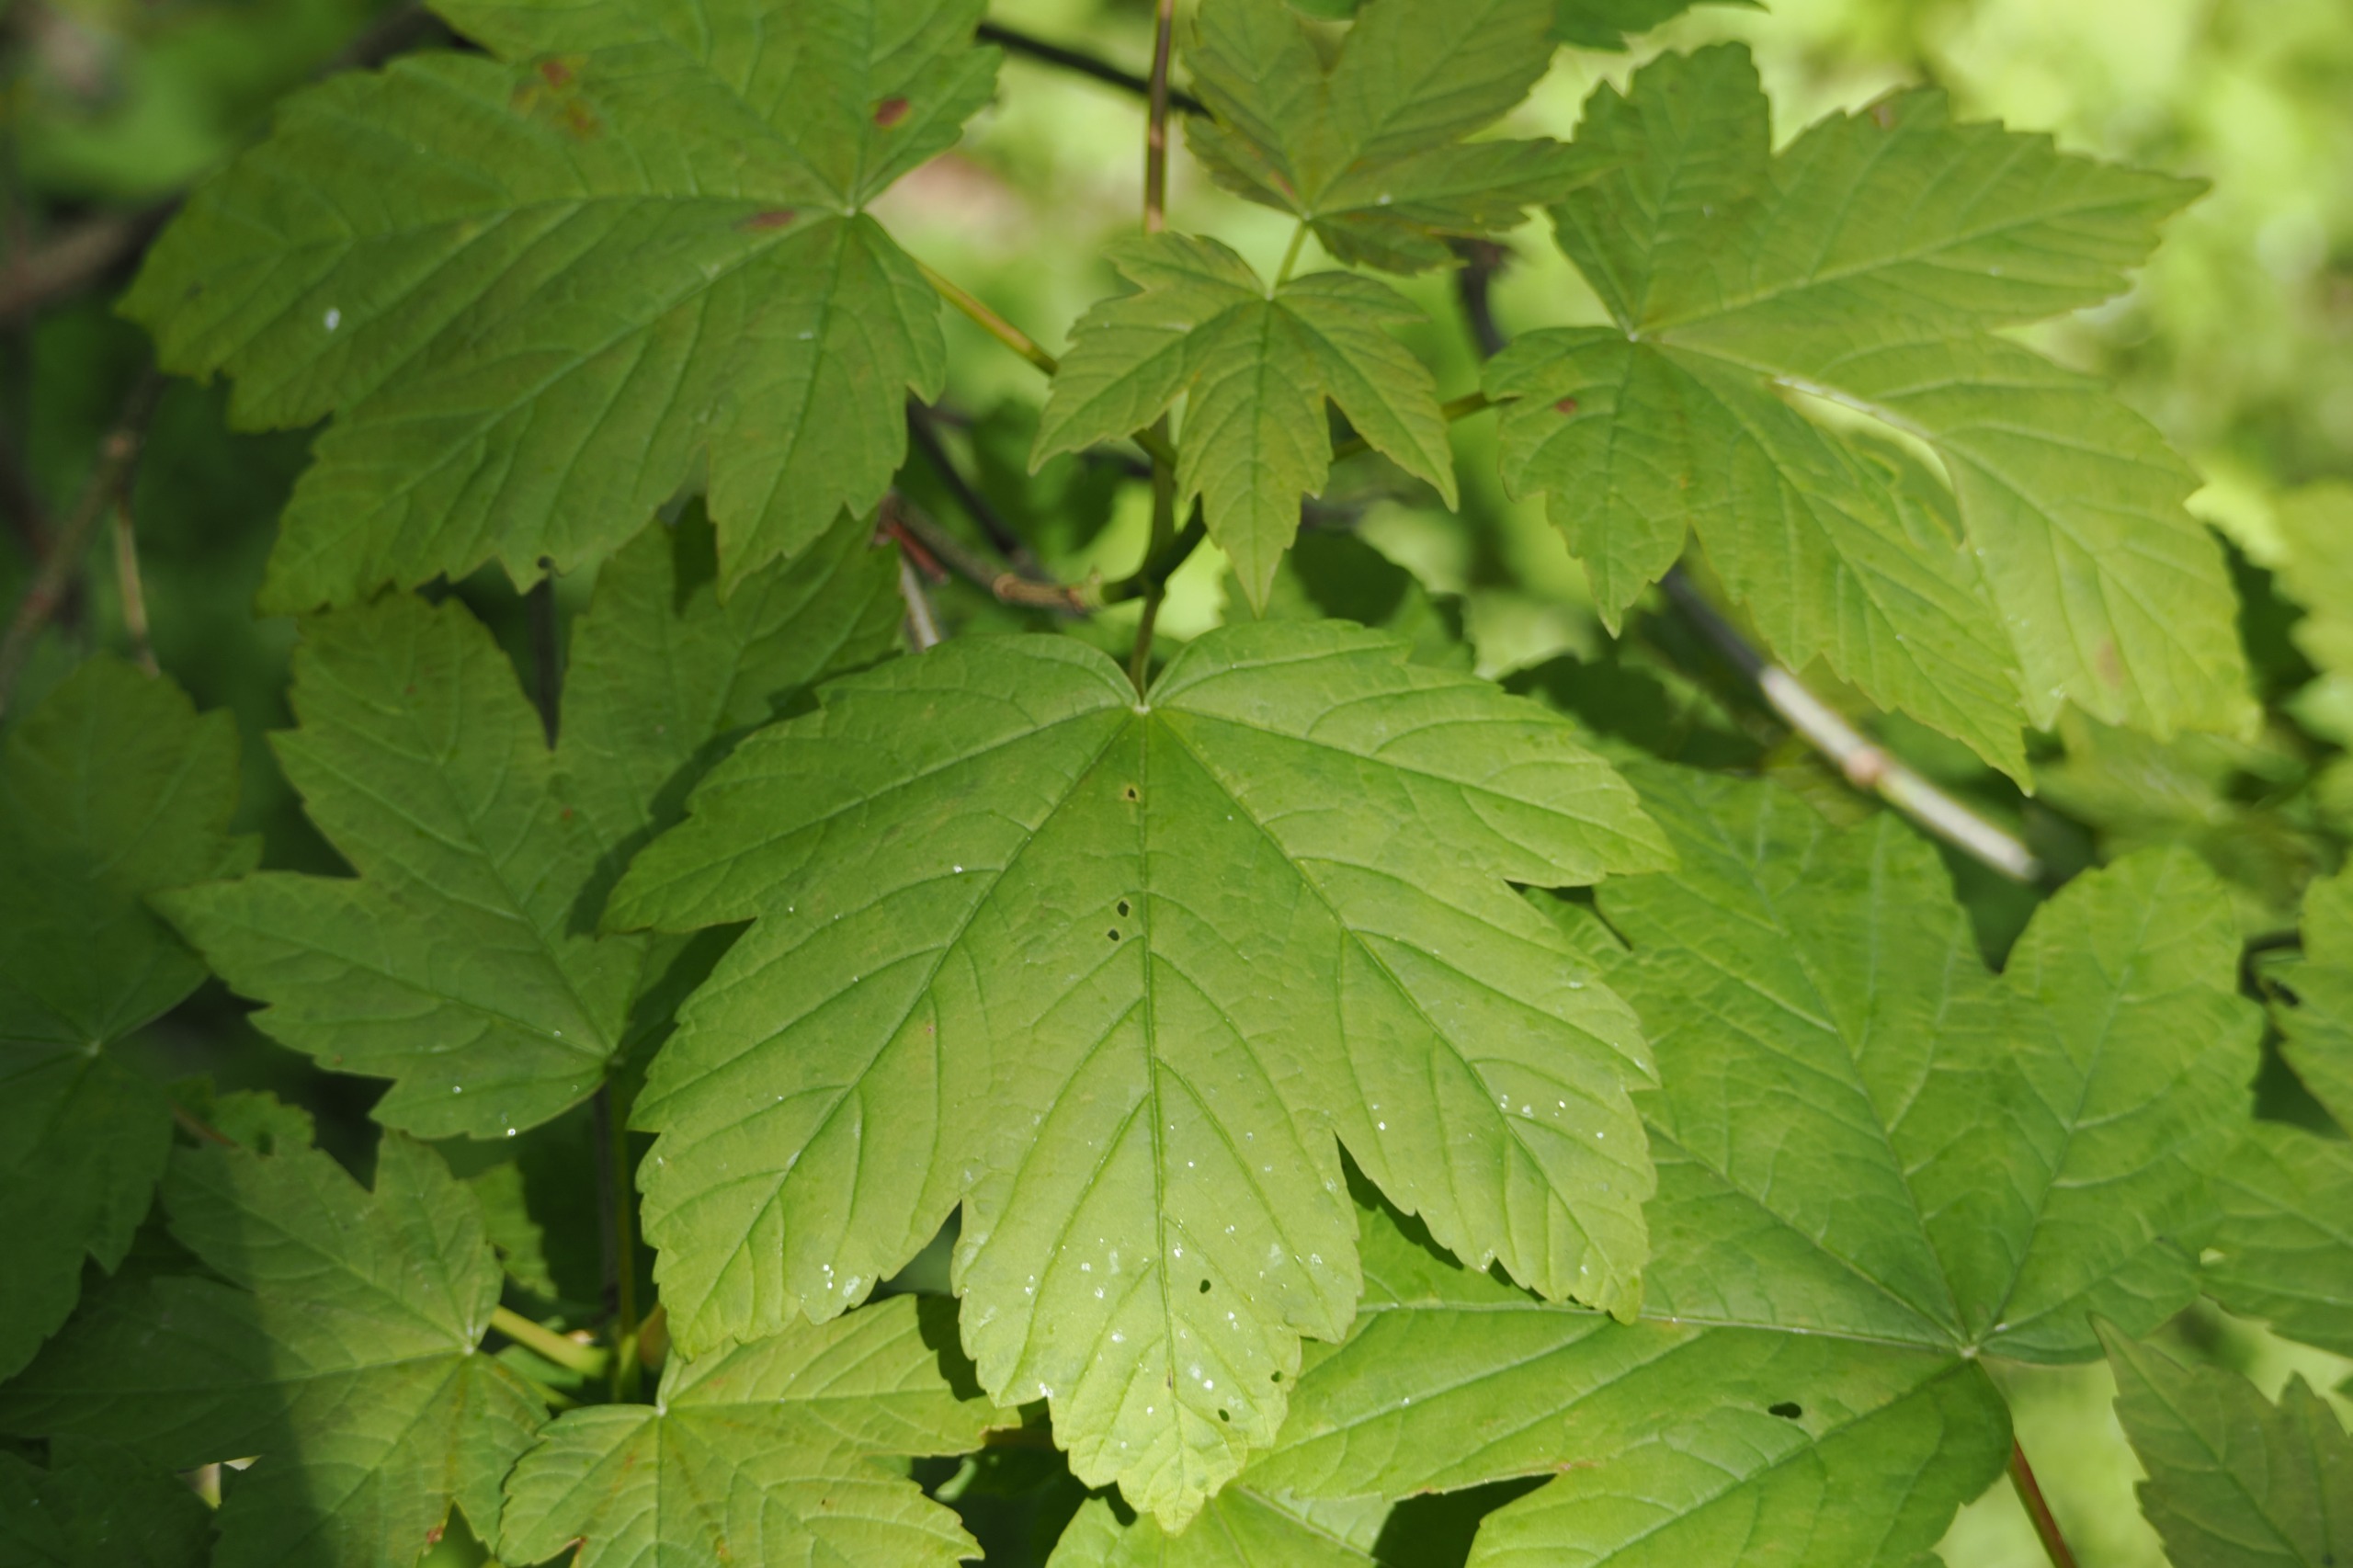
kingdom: Plantae
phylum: Tracheophyta
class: Magnoliopsida
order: Sapindales
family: Sapindaceae
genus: Acer
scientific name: Acer pseudoplatanus
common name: Ahorn
